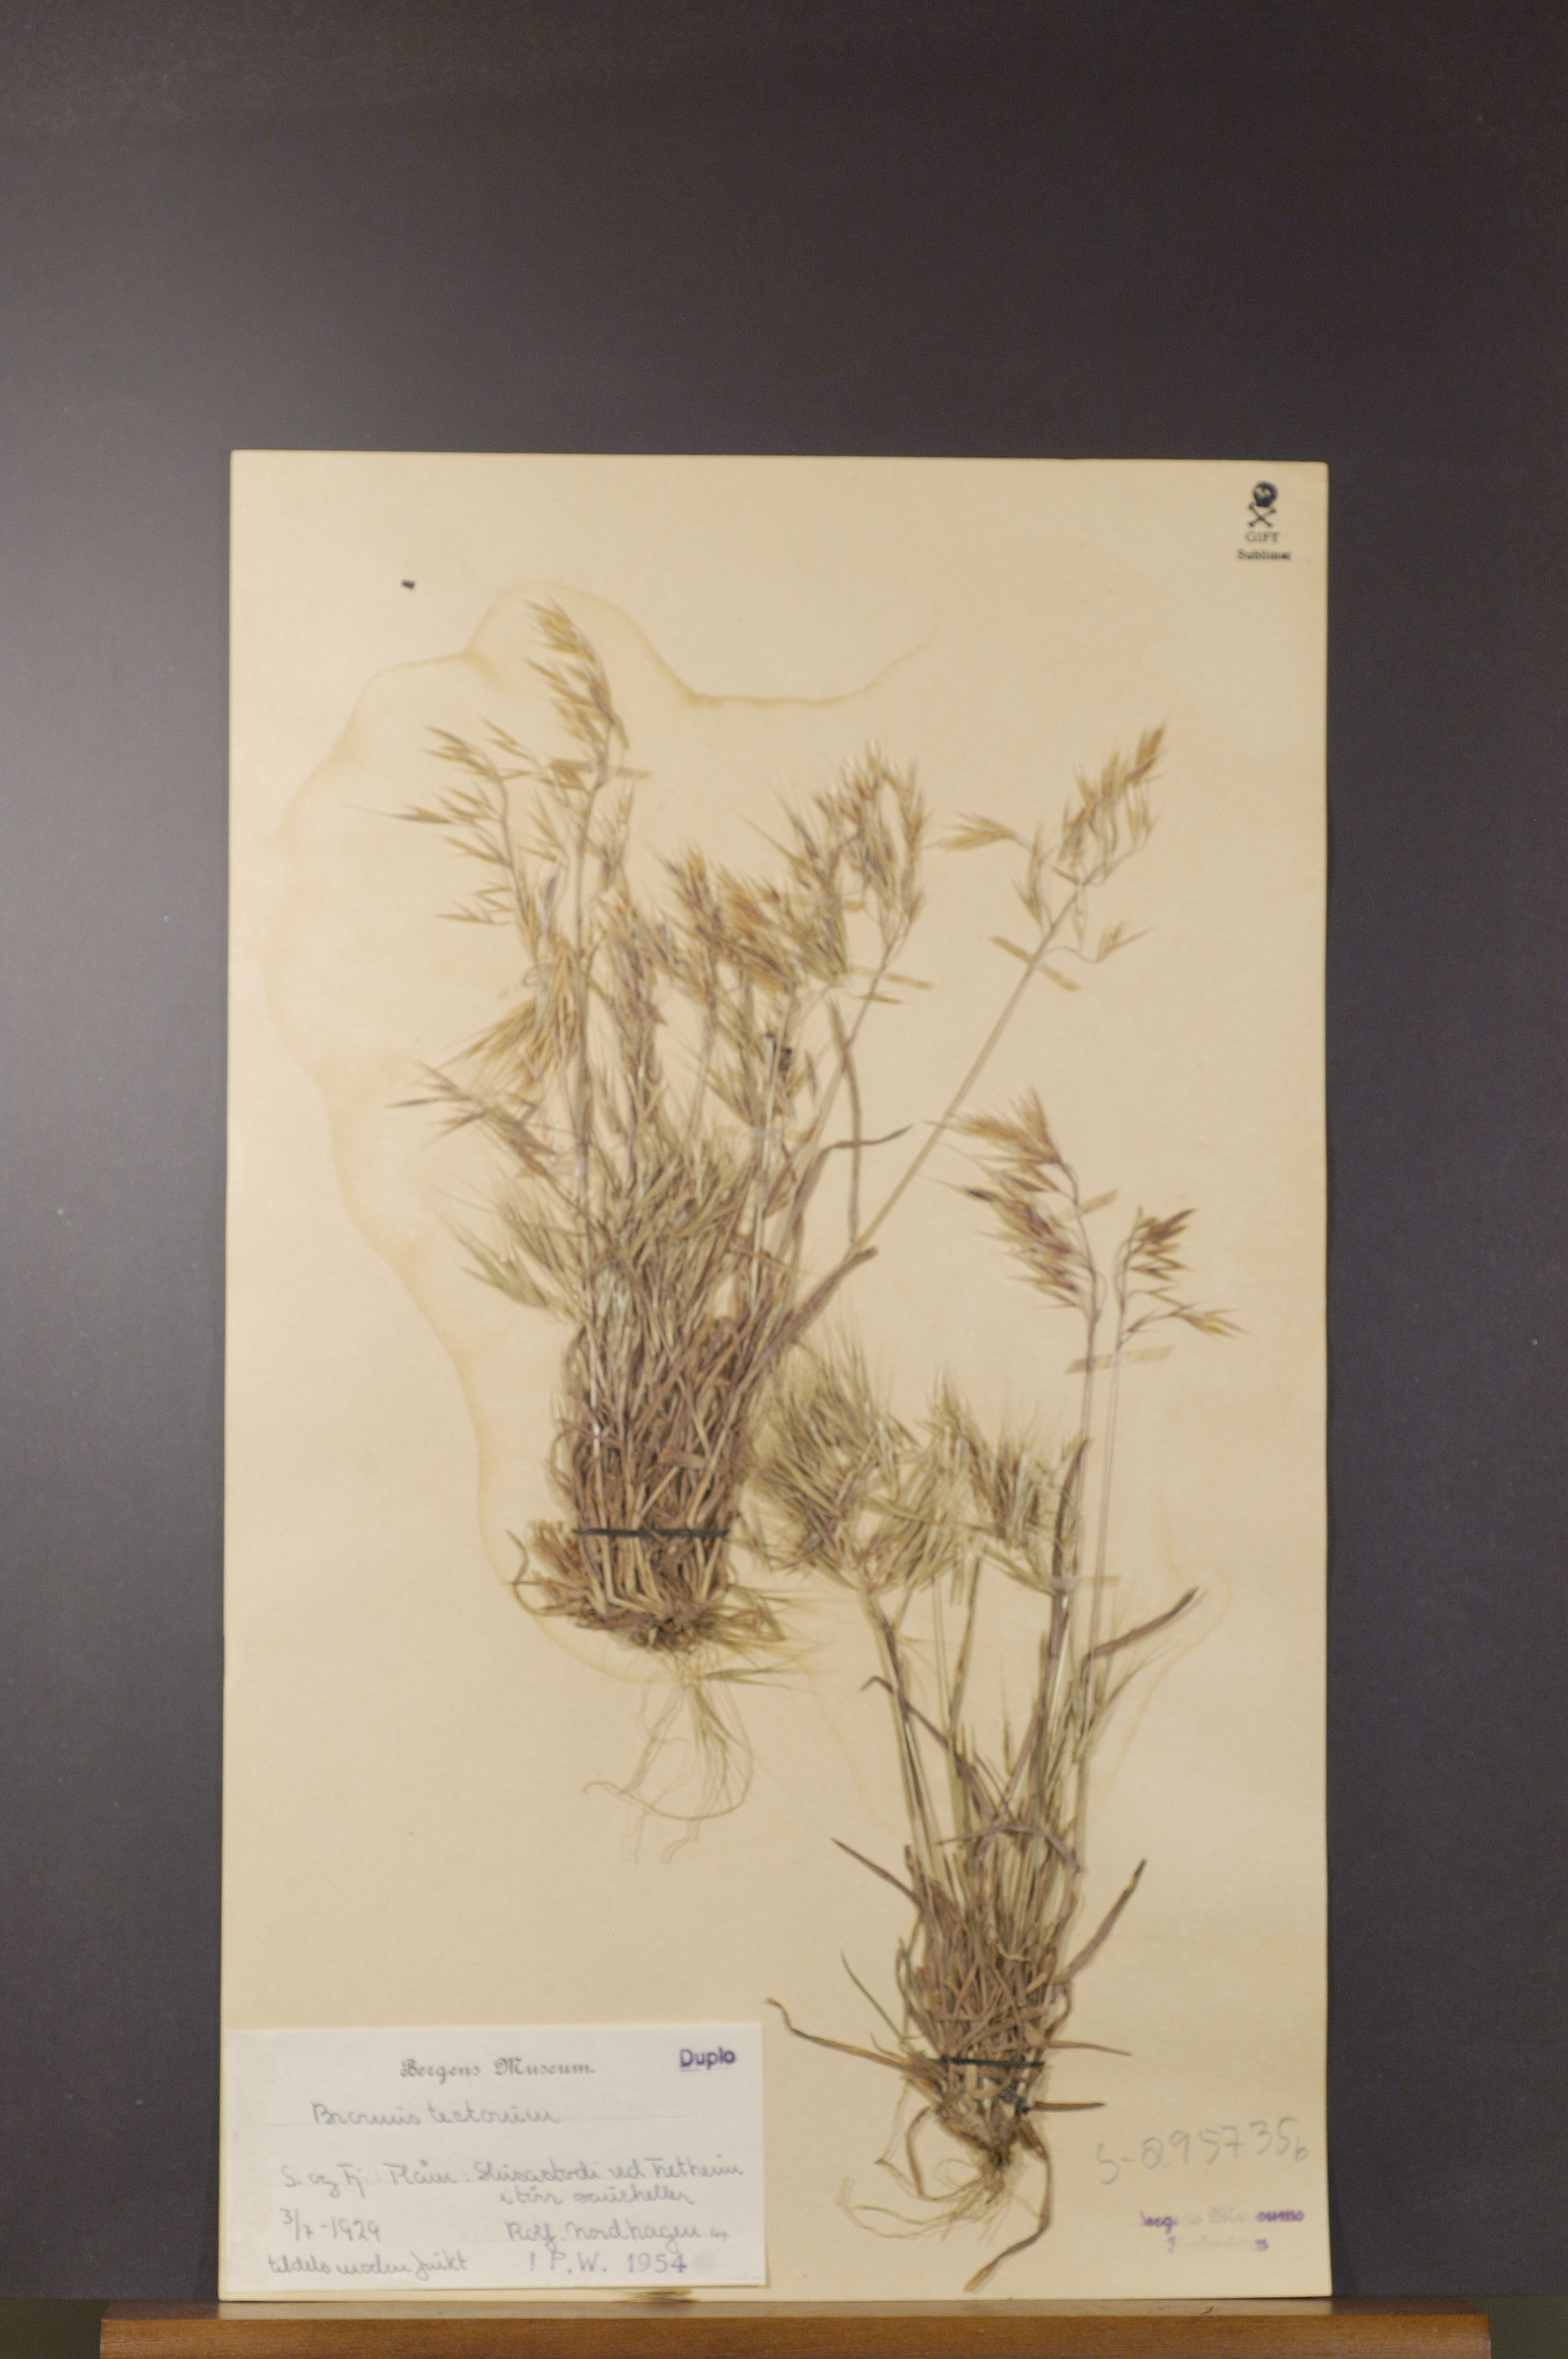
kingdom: Plantae
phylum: Tracheophyta
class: Liliopsida
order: Poales
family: Poaceae
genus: Bromus
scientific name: Bromus tectorum
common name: Cheatgrass
